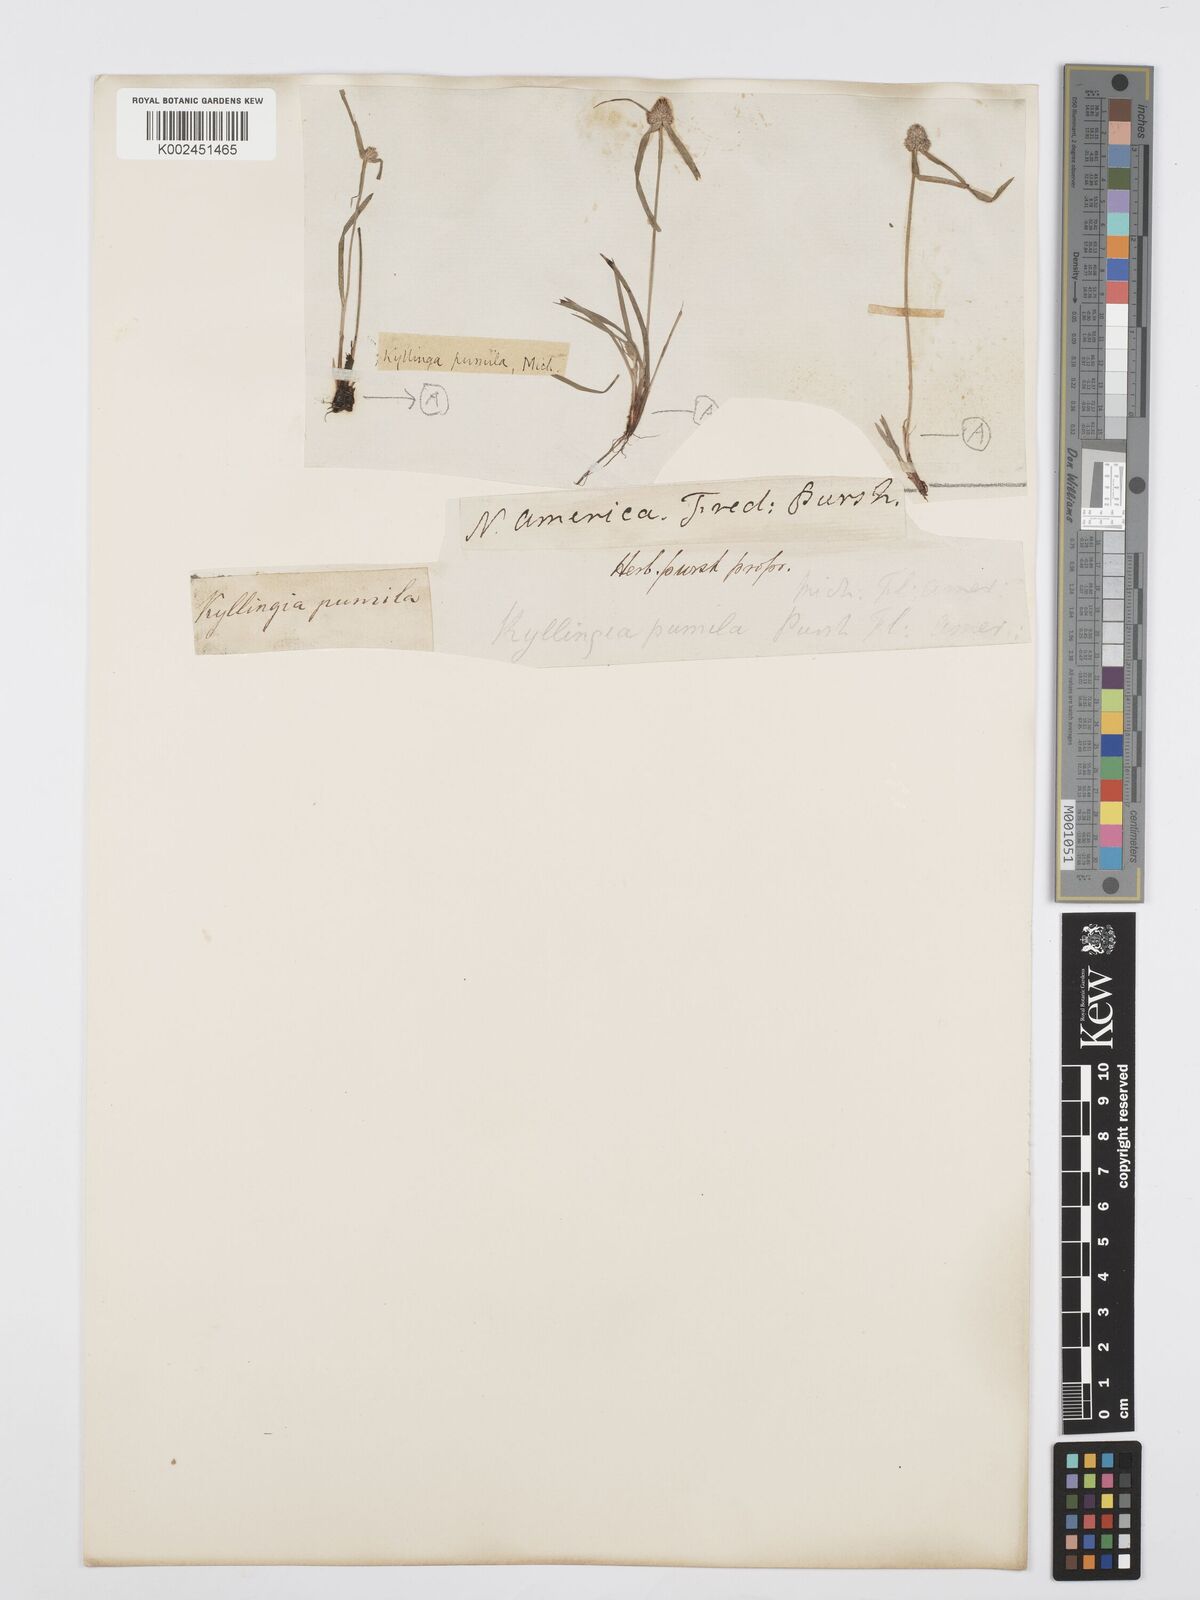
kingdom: Plantae
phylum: Tracheophyta
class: Liliopsida
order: Poales
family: Cyperaceae
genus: Cyperus
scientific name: Cyperus
